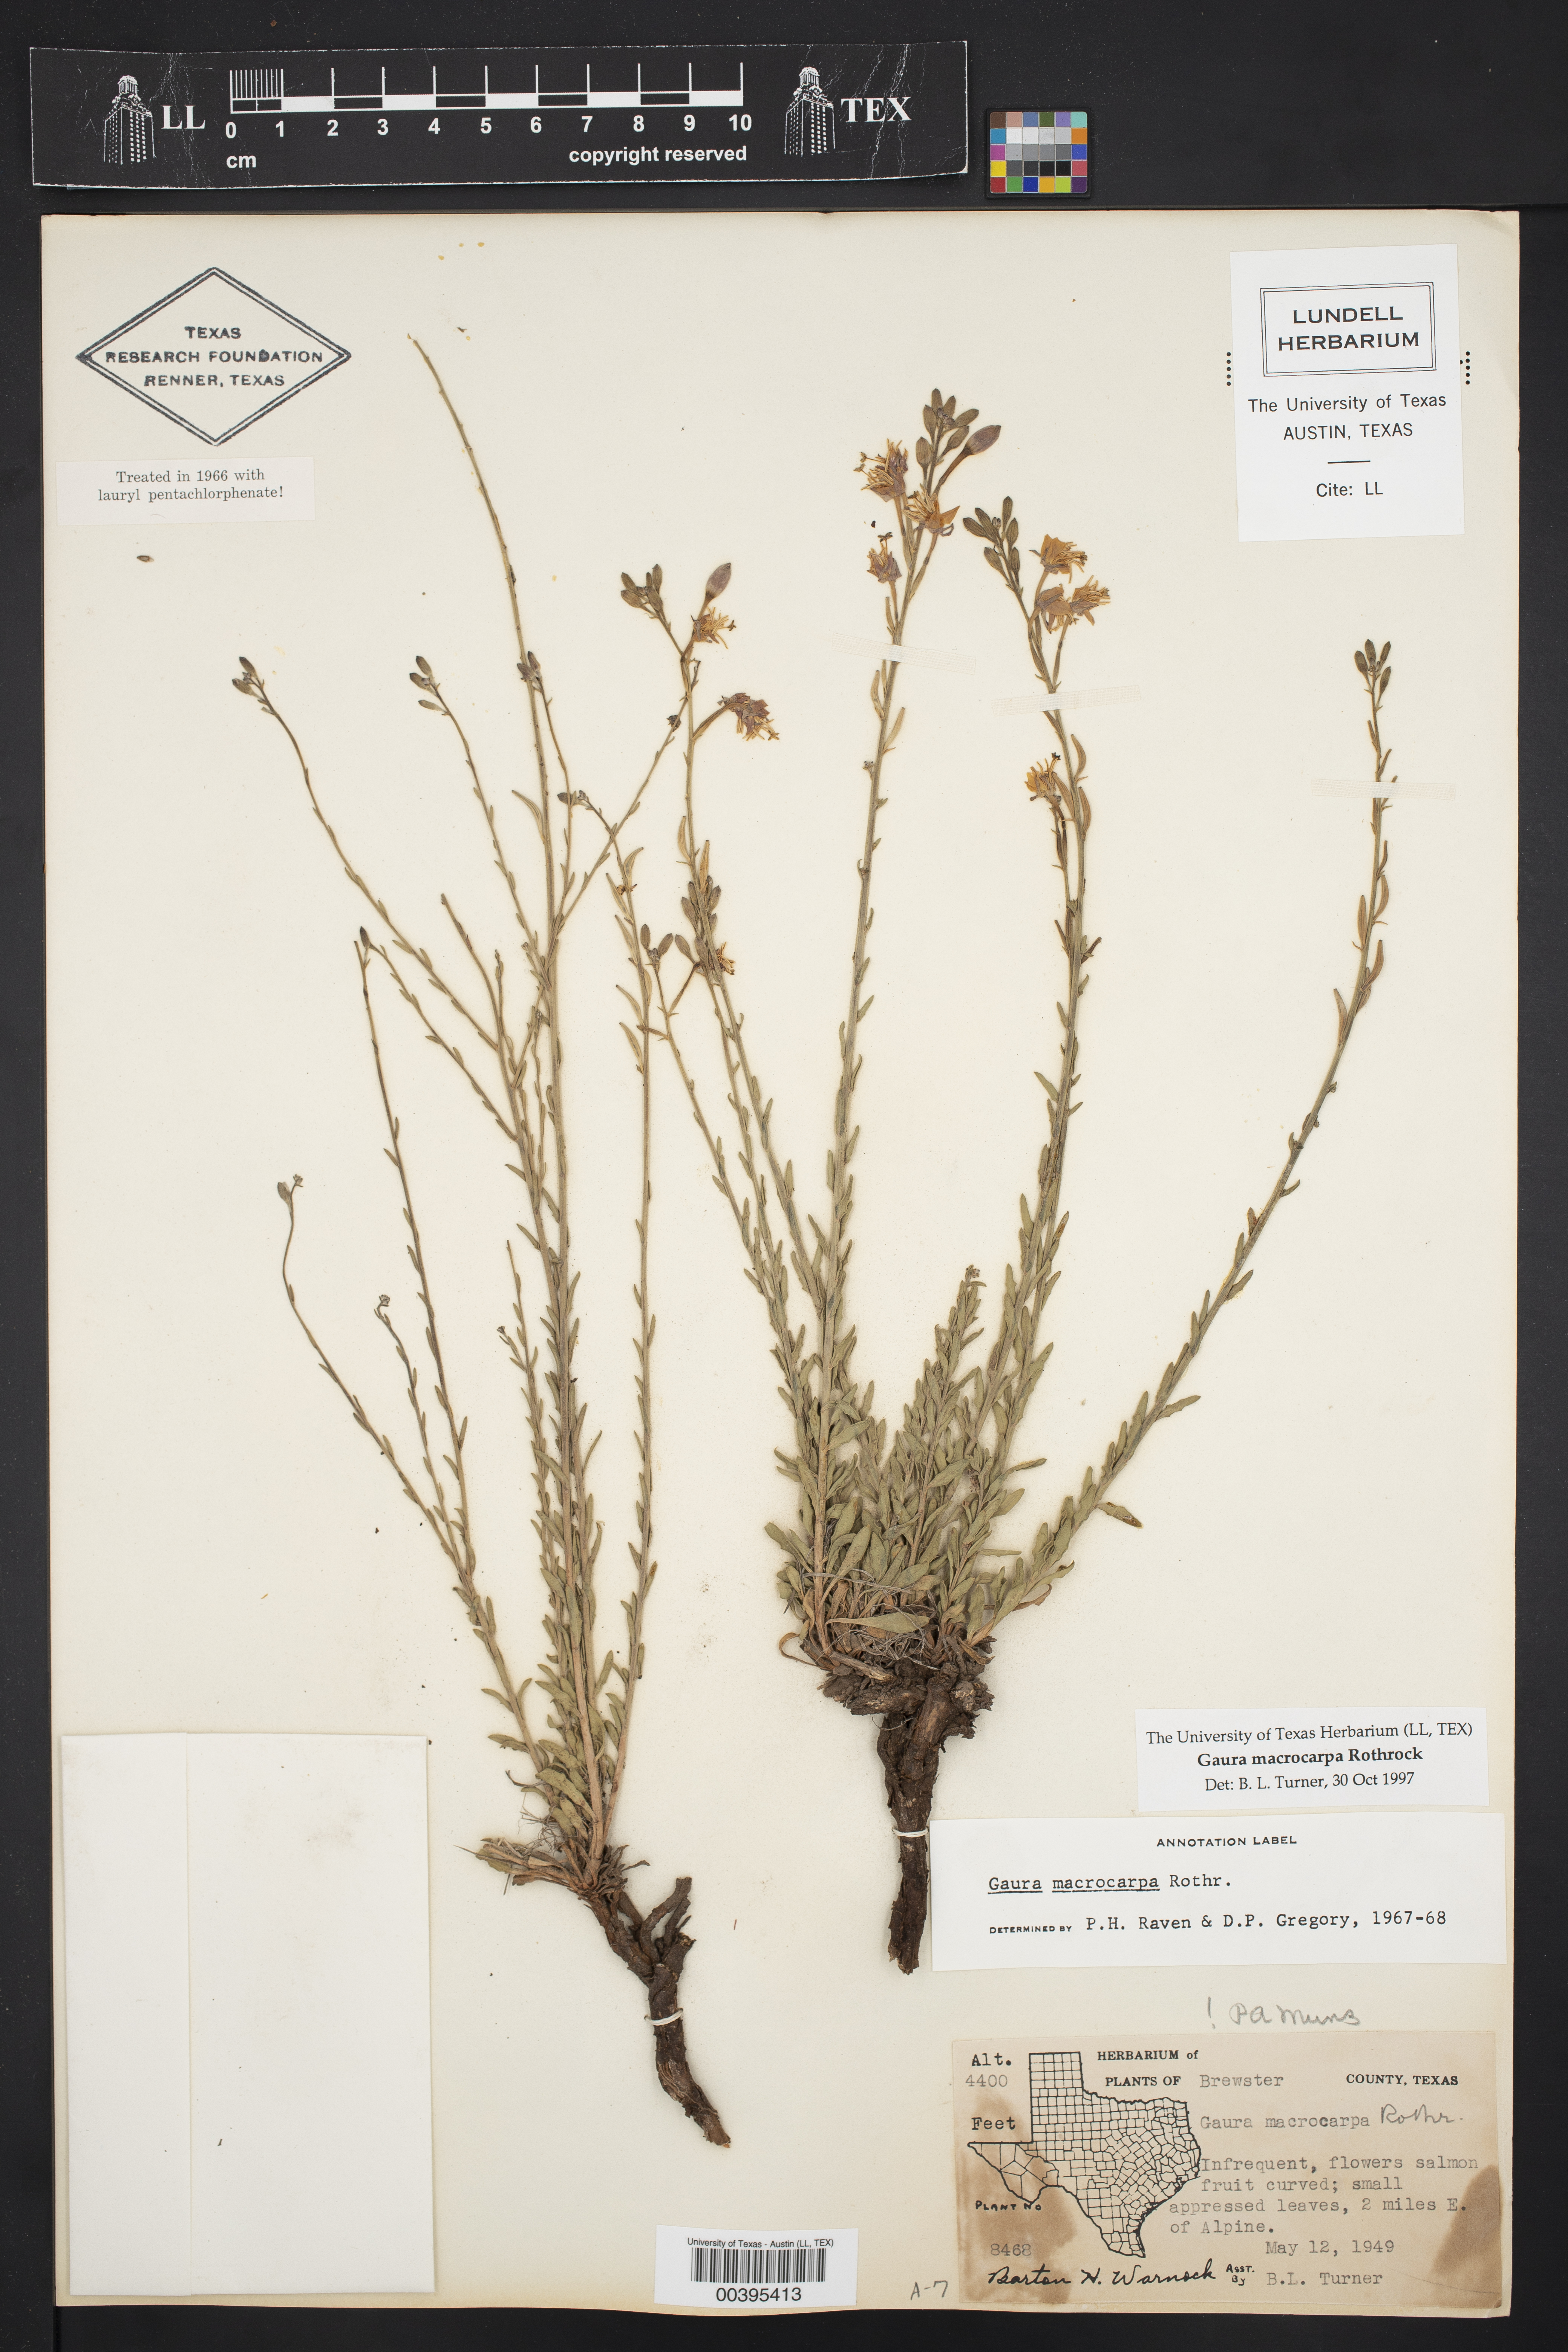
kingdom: Plantae
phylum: Tracheophyta
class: Magnoliopsida
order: Myrtales
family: Onagraceae
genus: Oenothera
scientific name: Oenothera arida
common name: Trans-pecos beeblossom
